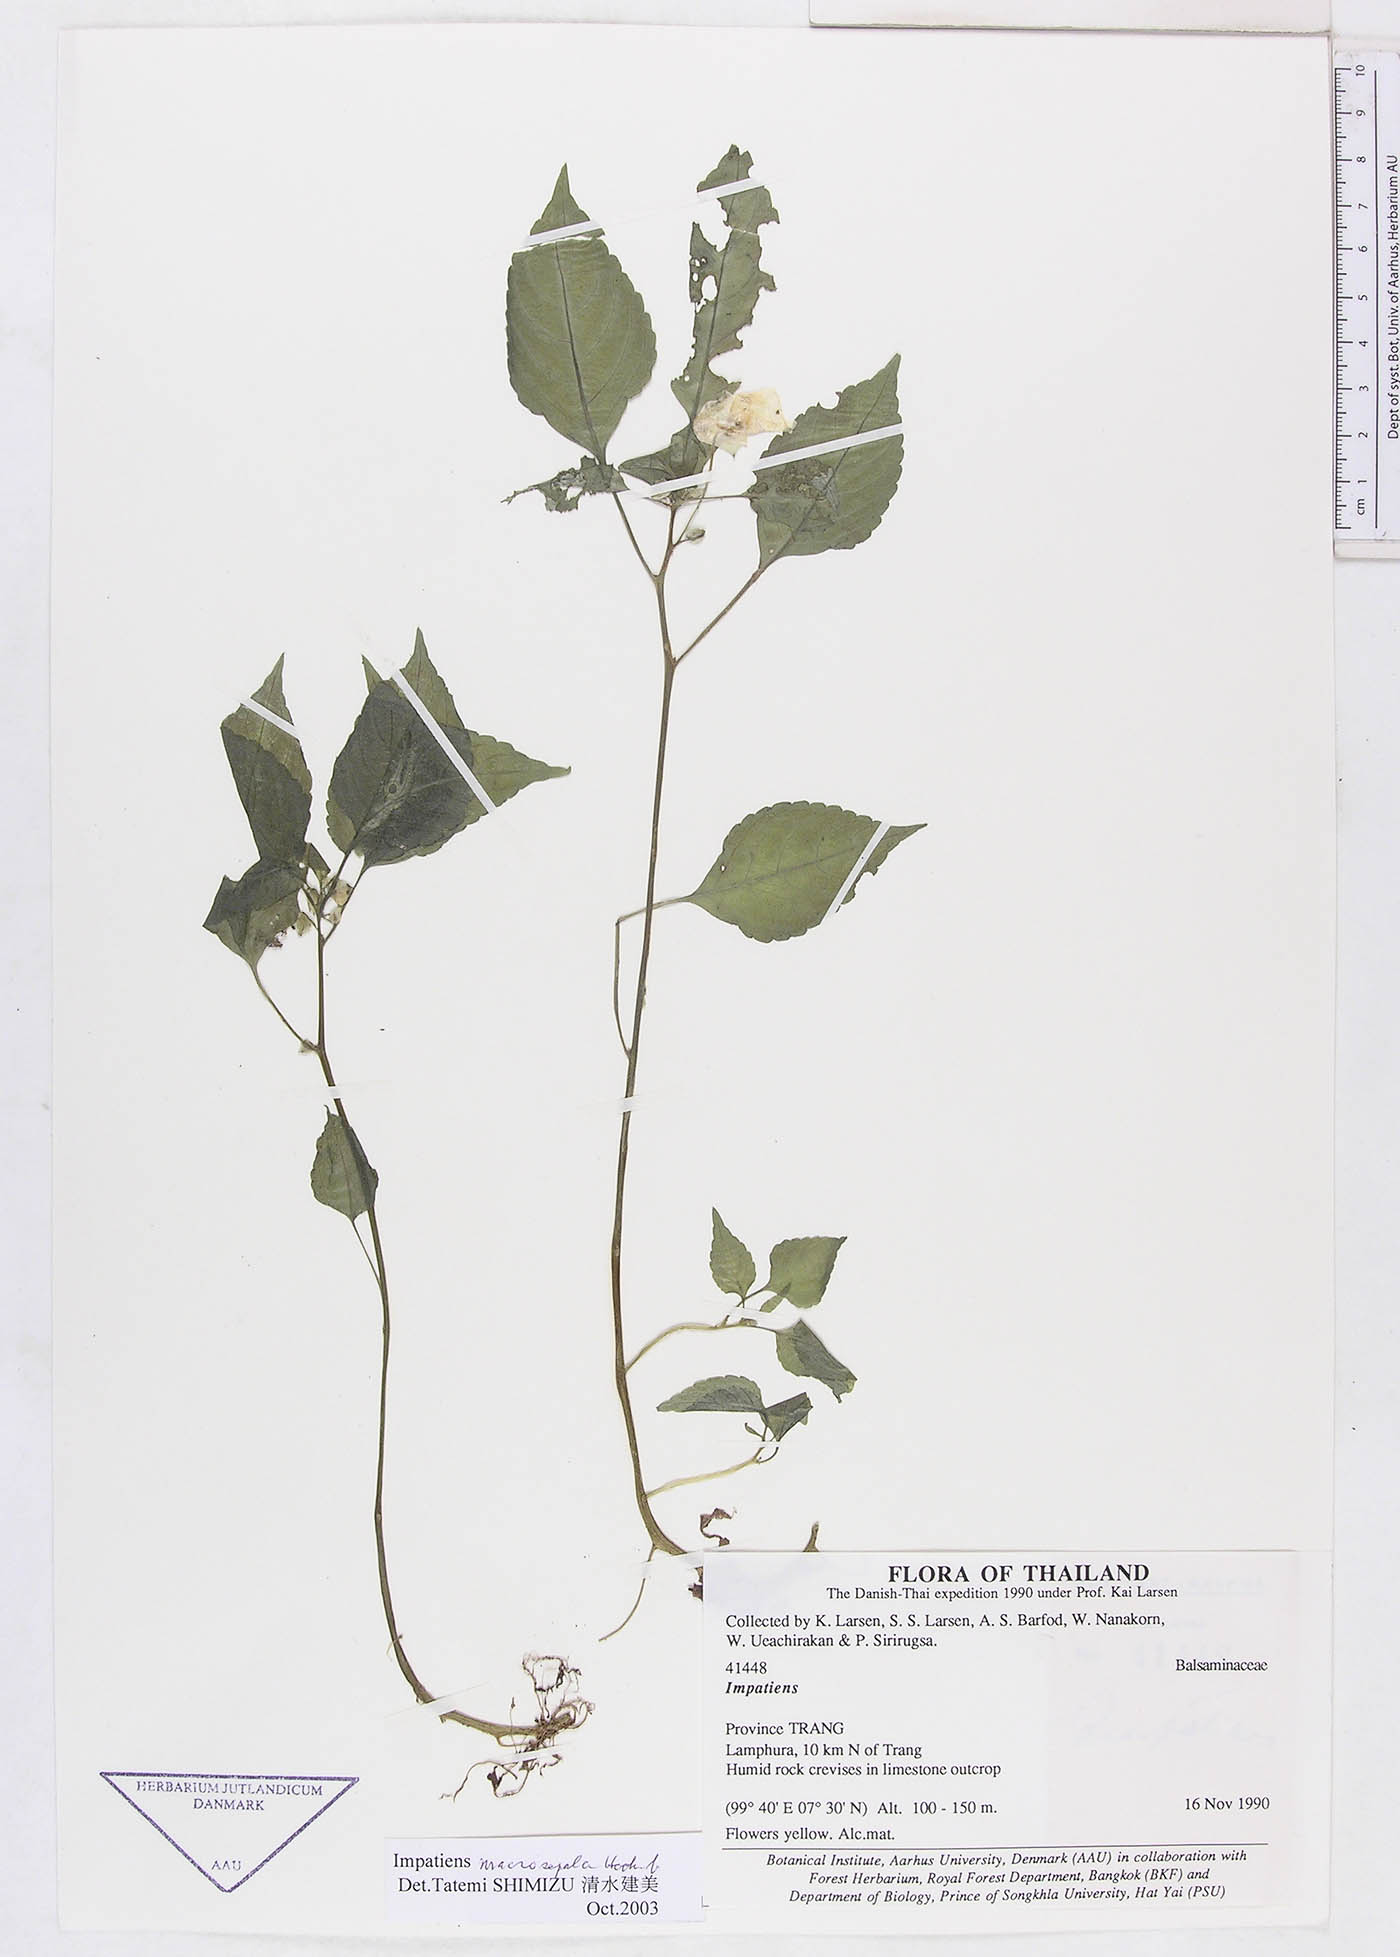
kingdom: Plantae
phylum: Tracheophyta
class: Magnoliopsida
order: Ericales
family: Balsaminaceae
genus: Impatiens
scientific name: Impatiens larsenii
